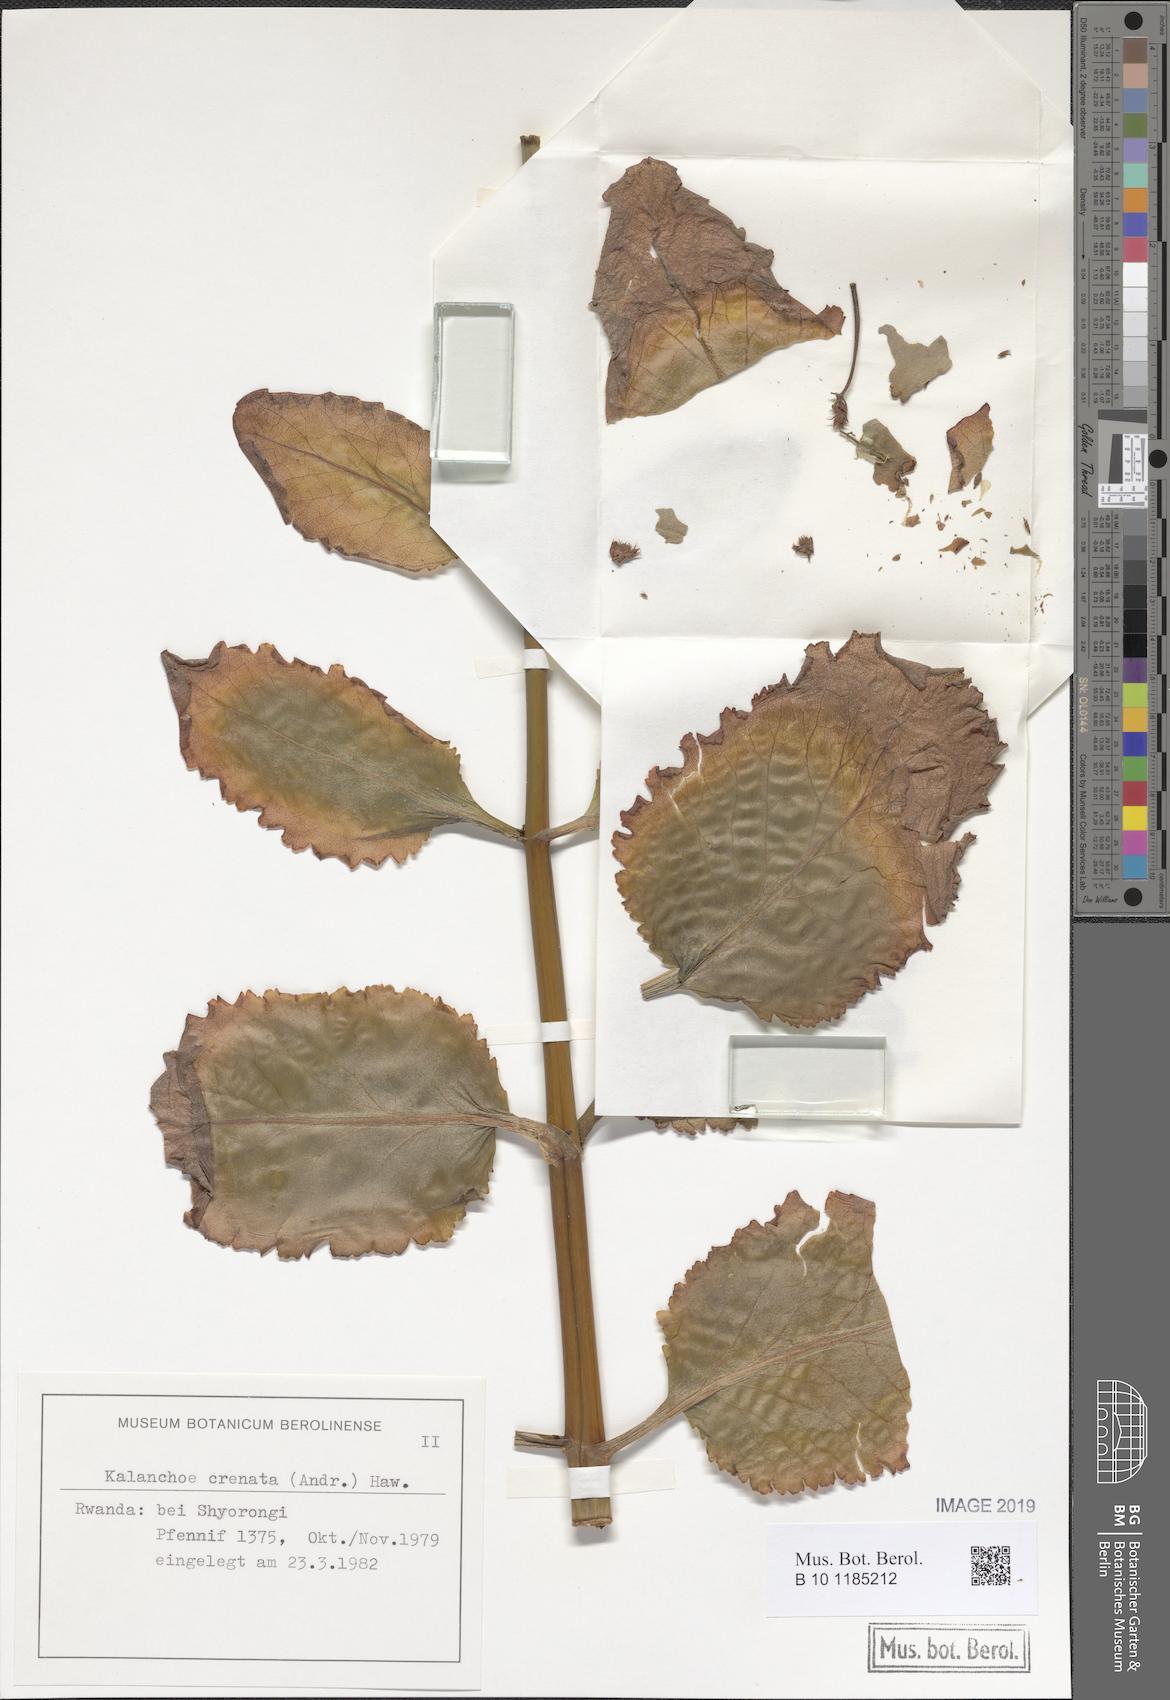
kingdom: Plantae
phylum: Tracheophyta
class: Magnoliopsida
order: Saxifragales
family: Crassulaceae
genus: Kalanchoe
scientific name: Kalanchoe crenata
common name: Neverdie
